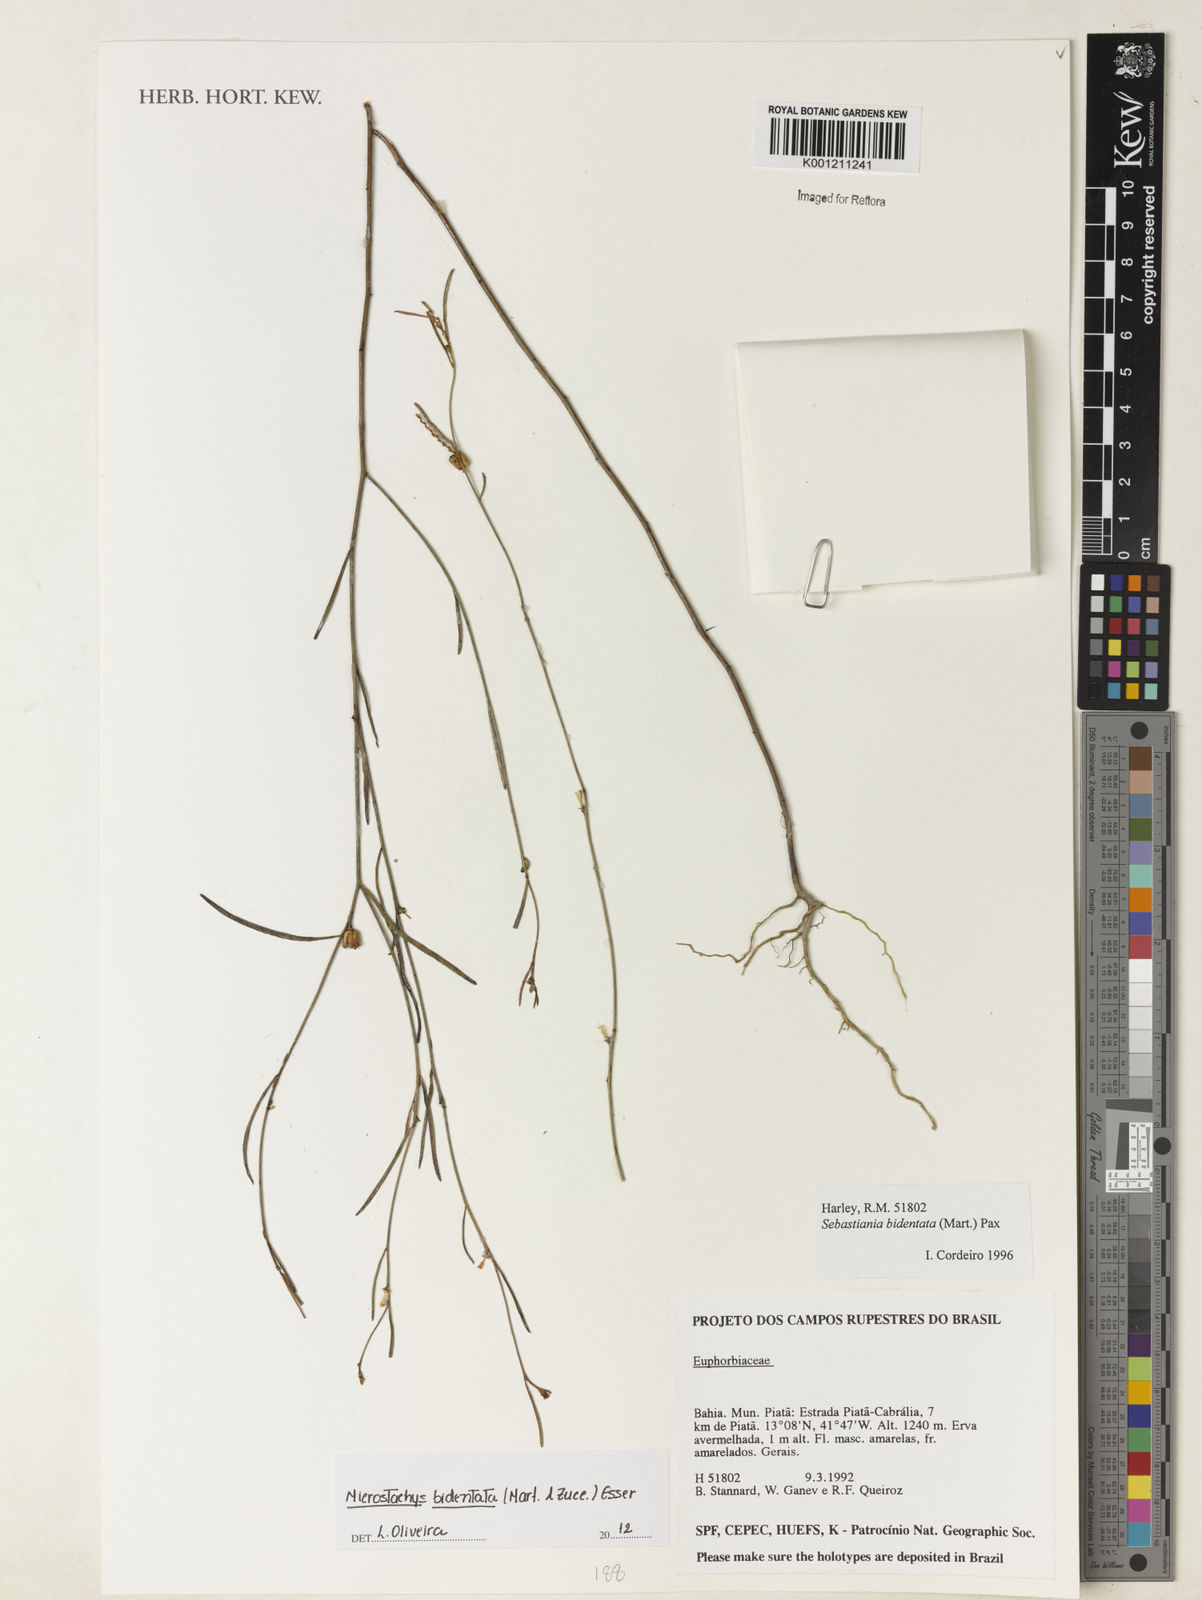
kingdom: Plantae
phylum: Tracheophyta
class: Magnoliopsida
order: Malpighiales
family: Euphorbiaceae
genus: Microstachys
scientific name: Microstachys bidentata
